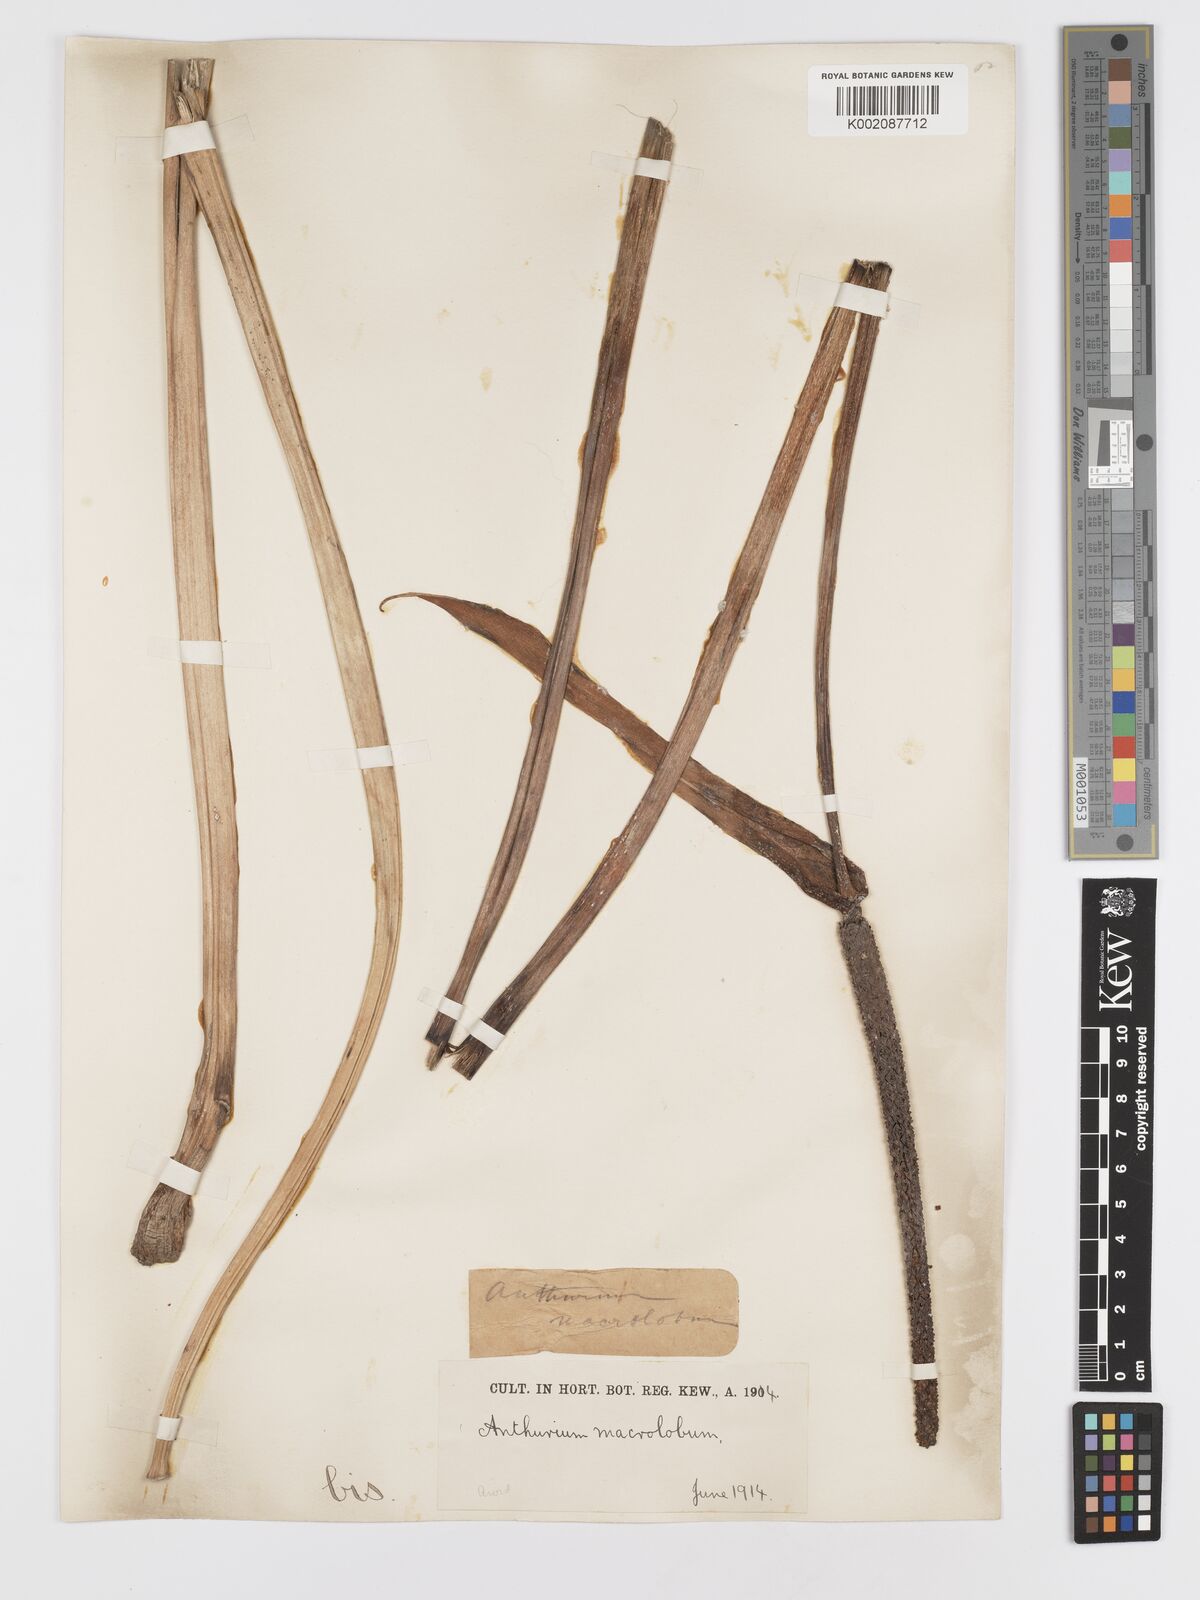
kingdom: Plantae
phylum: Tracheophyta
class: Liliopsida
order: Alismatales
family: Araceae
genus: Anthurium
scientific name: Anthurium leuconeurum
